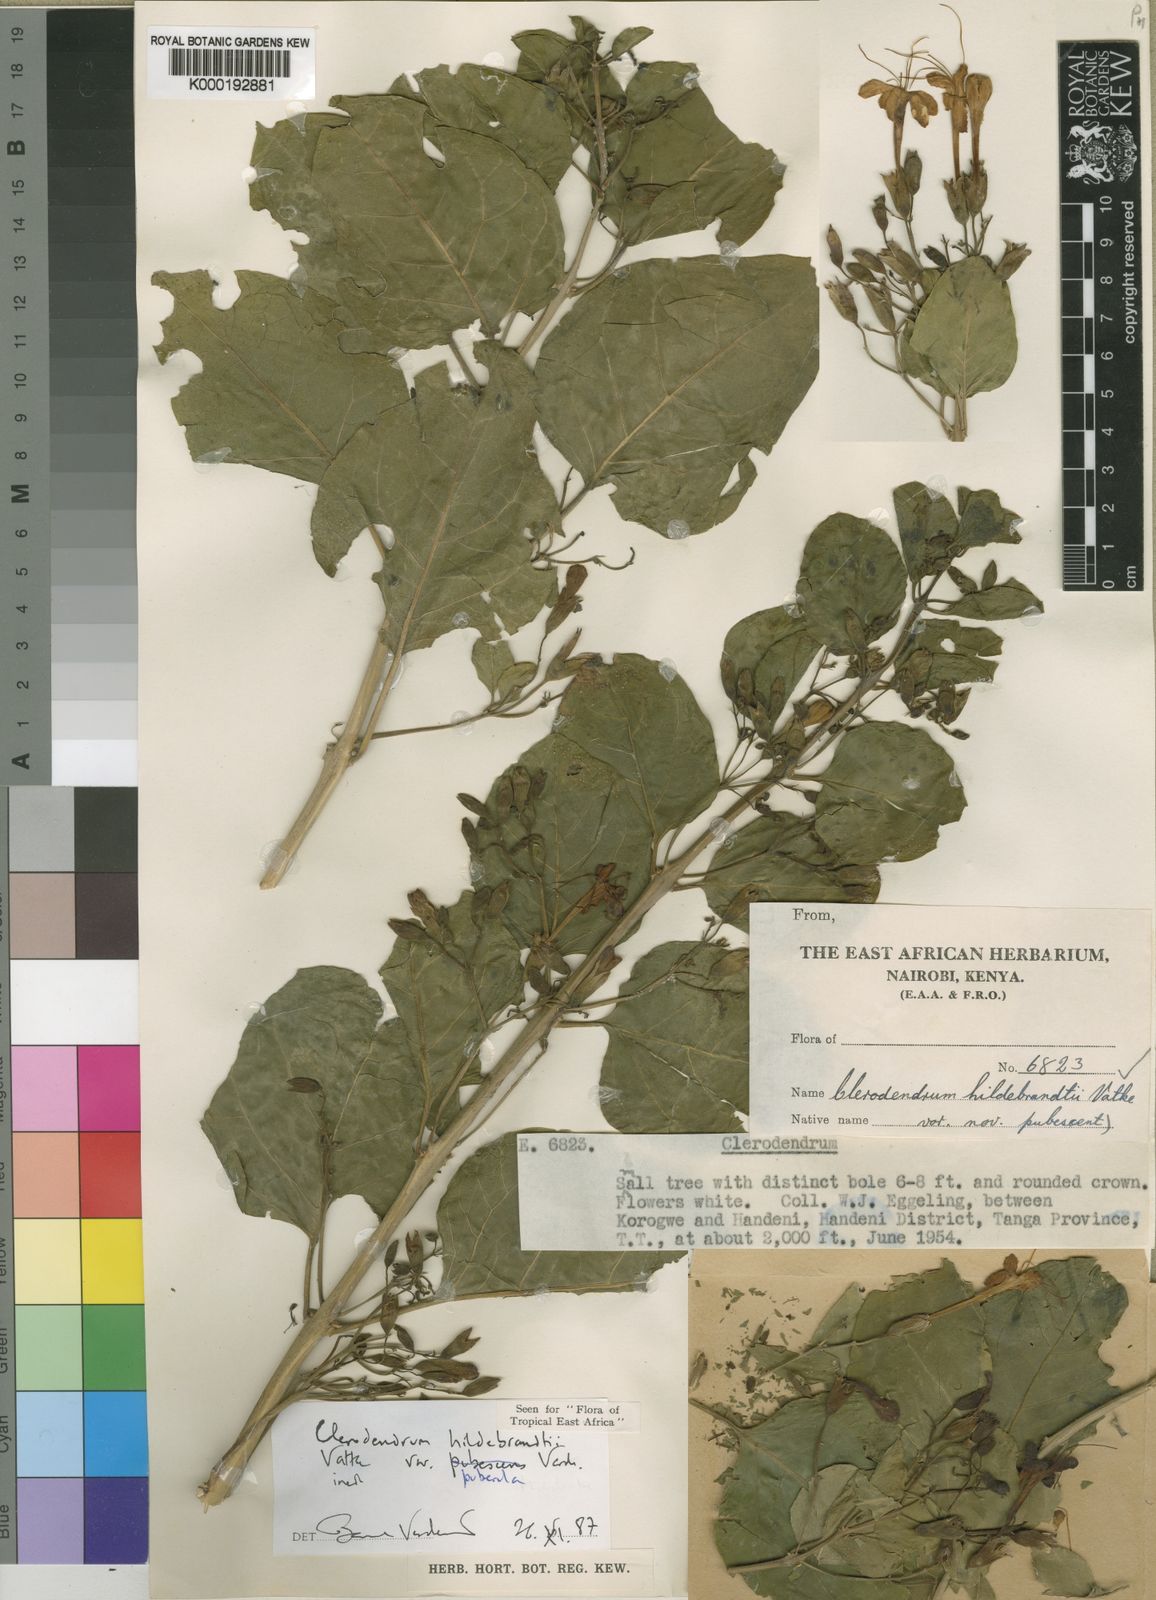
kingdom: Plantae
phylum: Tracheophyta
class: Magnoliopsida
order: Lamiales
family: Lamiaceae
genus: Clerodendrum
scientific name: Clerodendrum hildebrandtii
